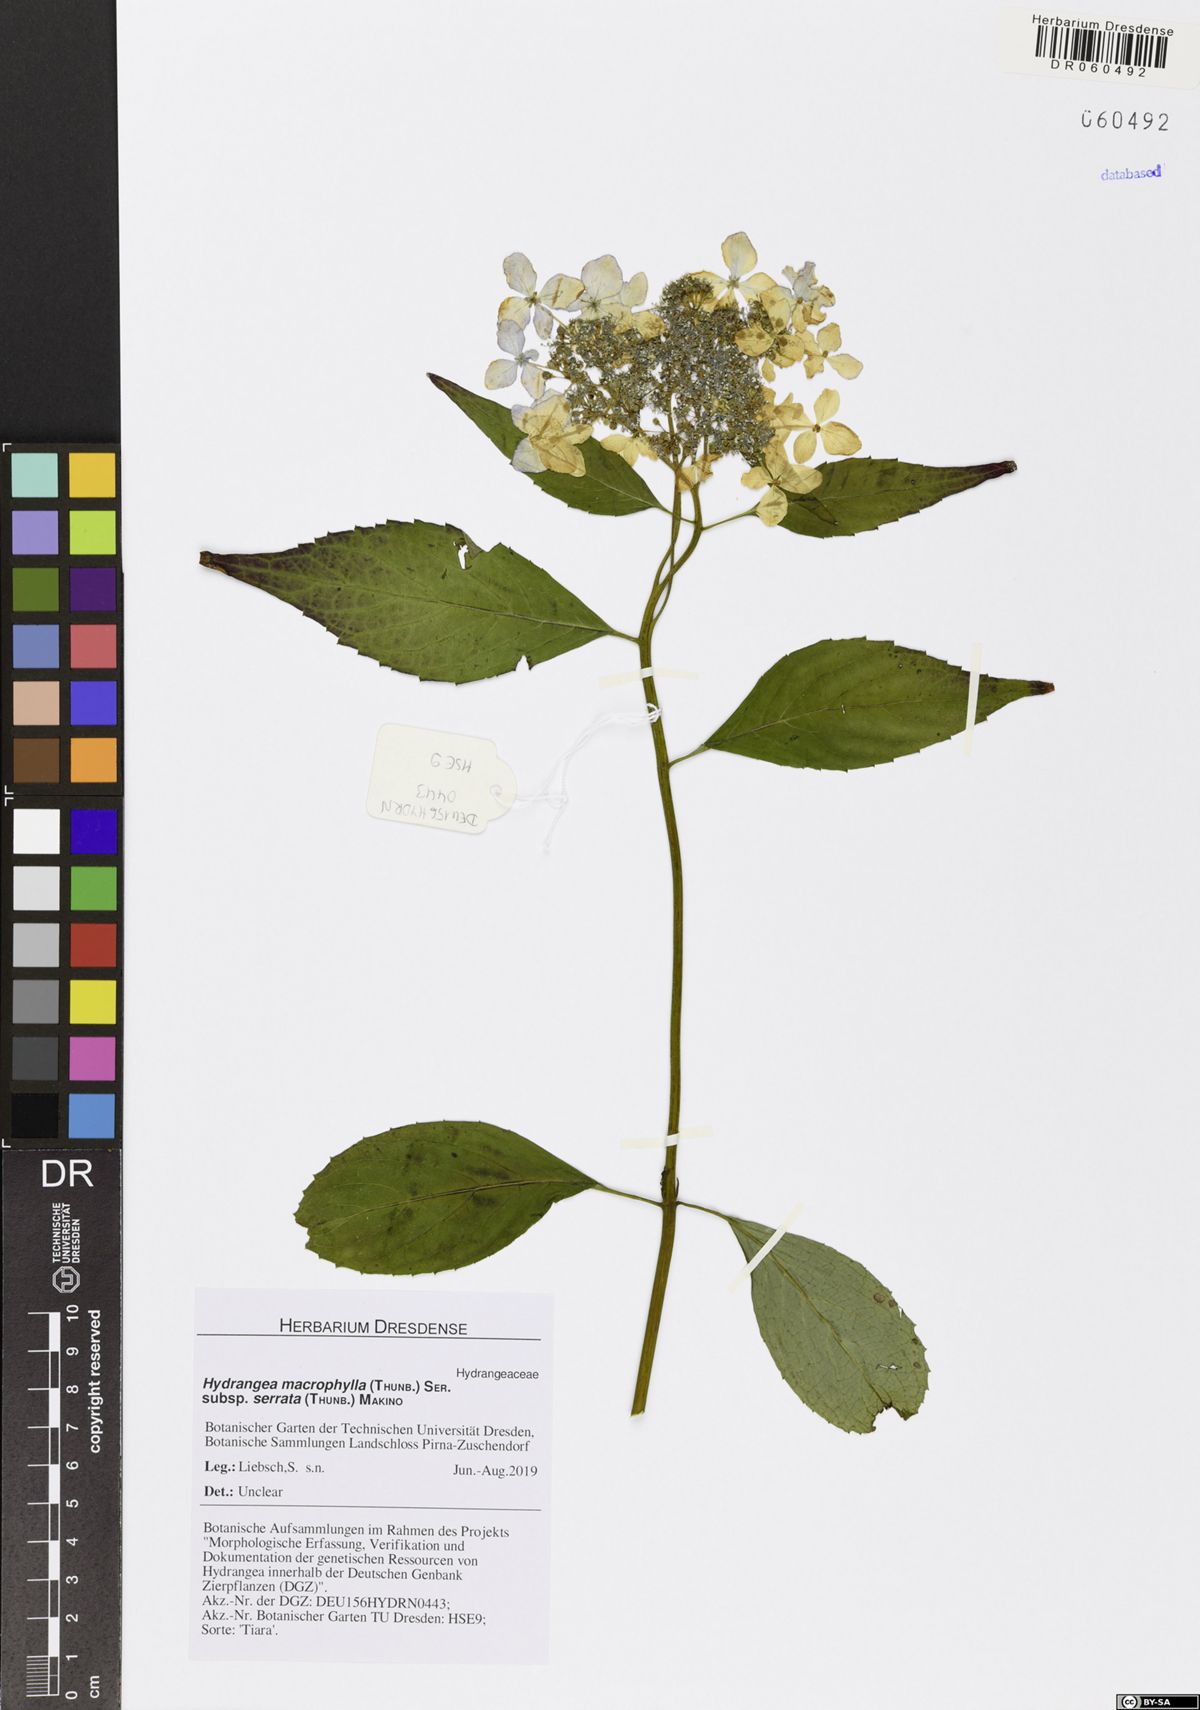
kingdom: Plantae
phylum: Tracheophyta
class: Magnoliopsida
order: Cornales
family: Hydrangeaceae
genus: Hydrangea
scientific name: Hydrangea serrata
